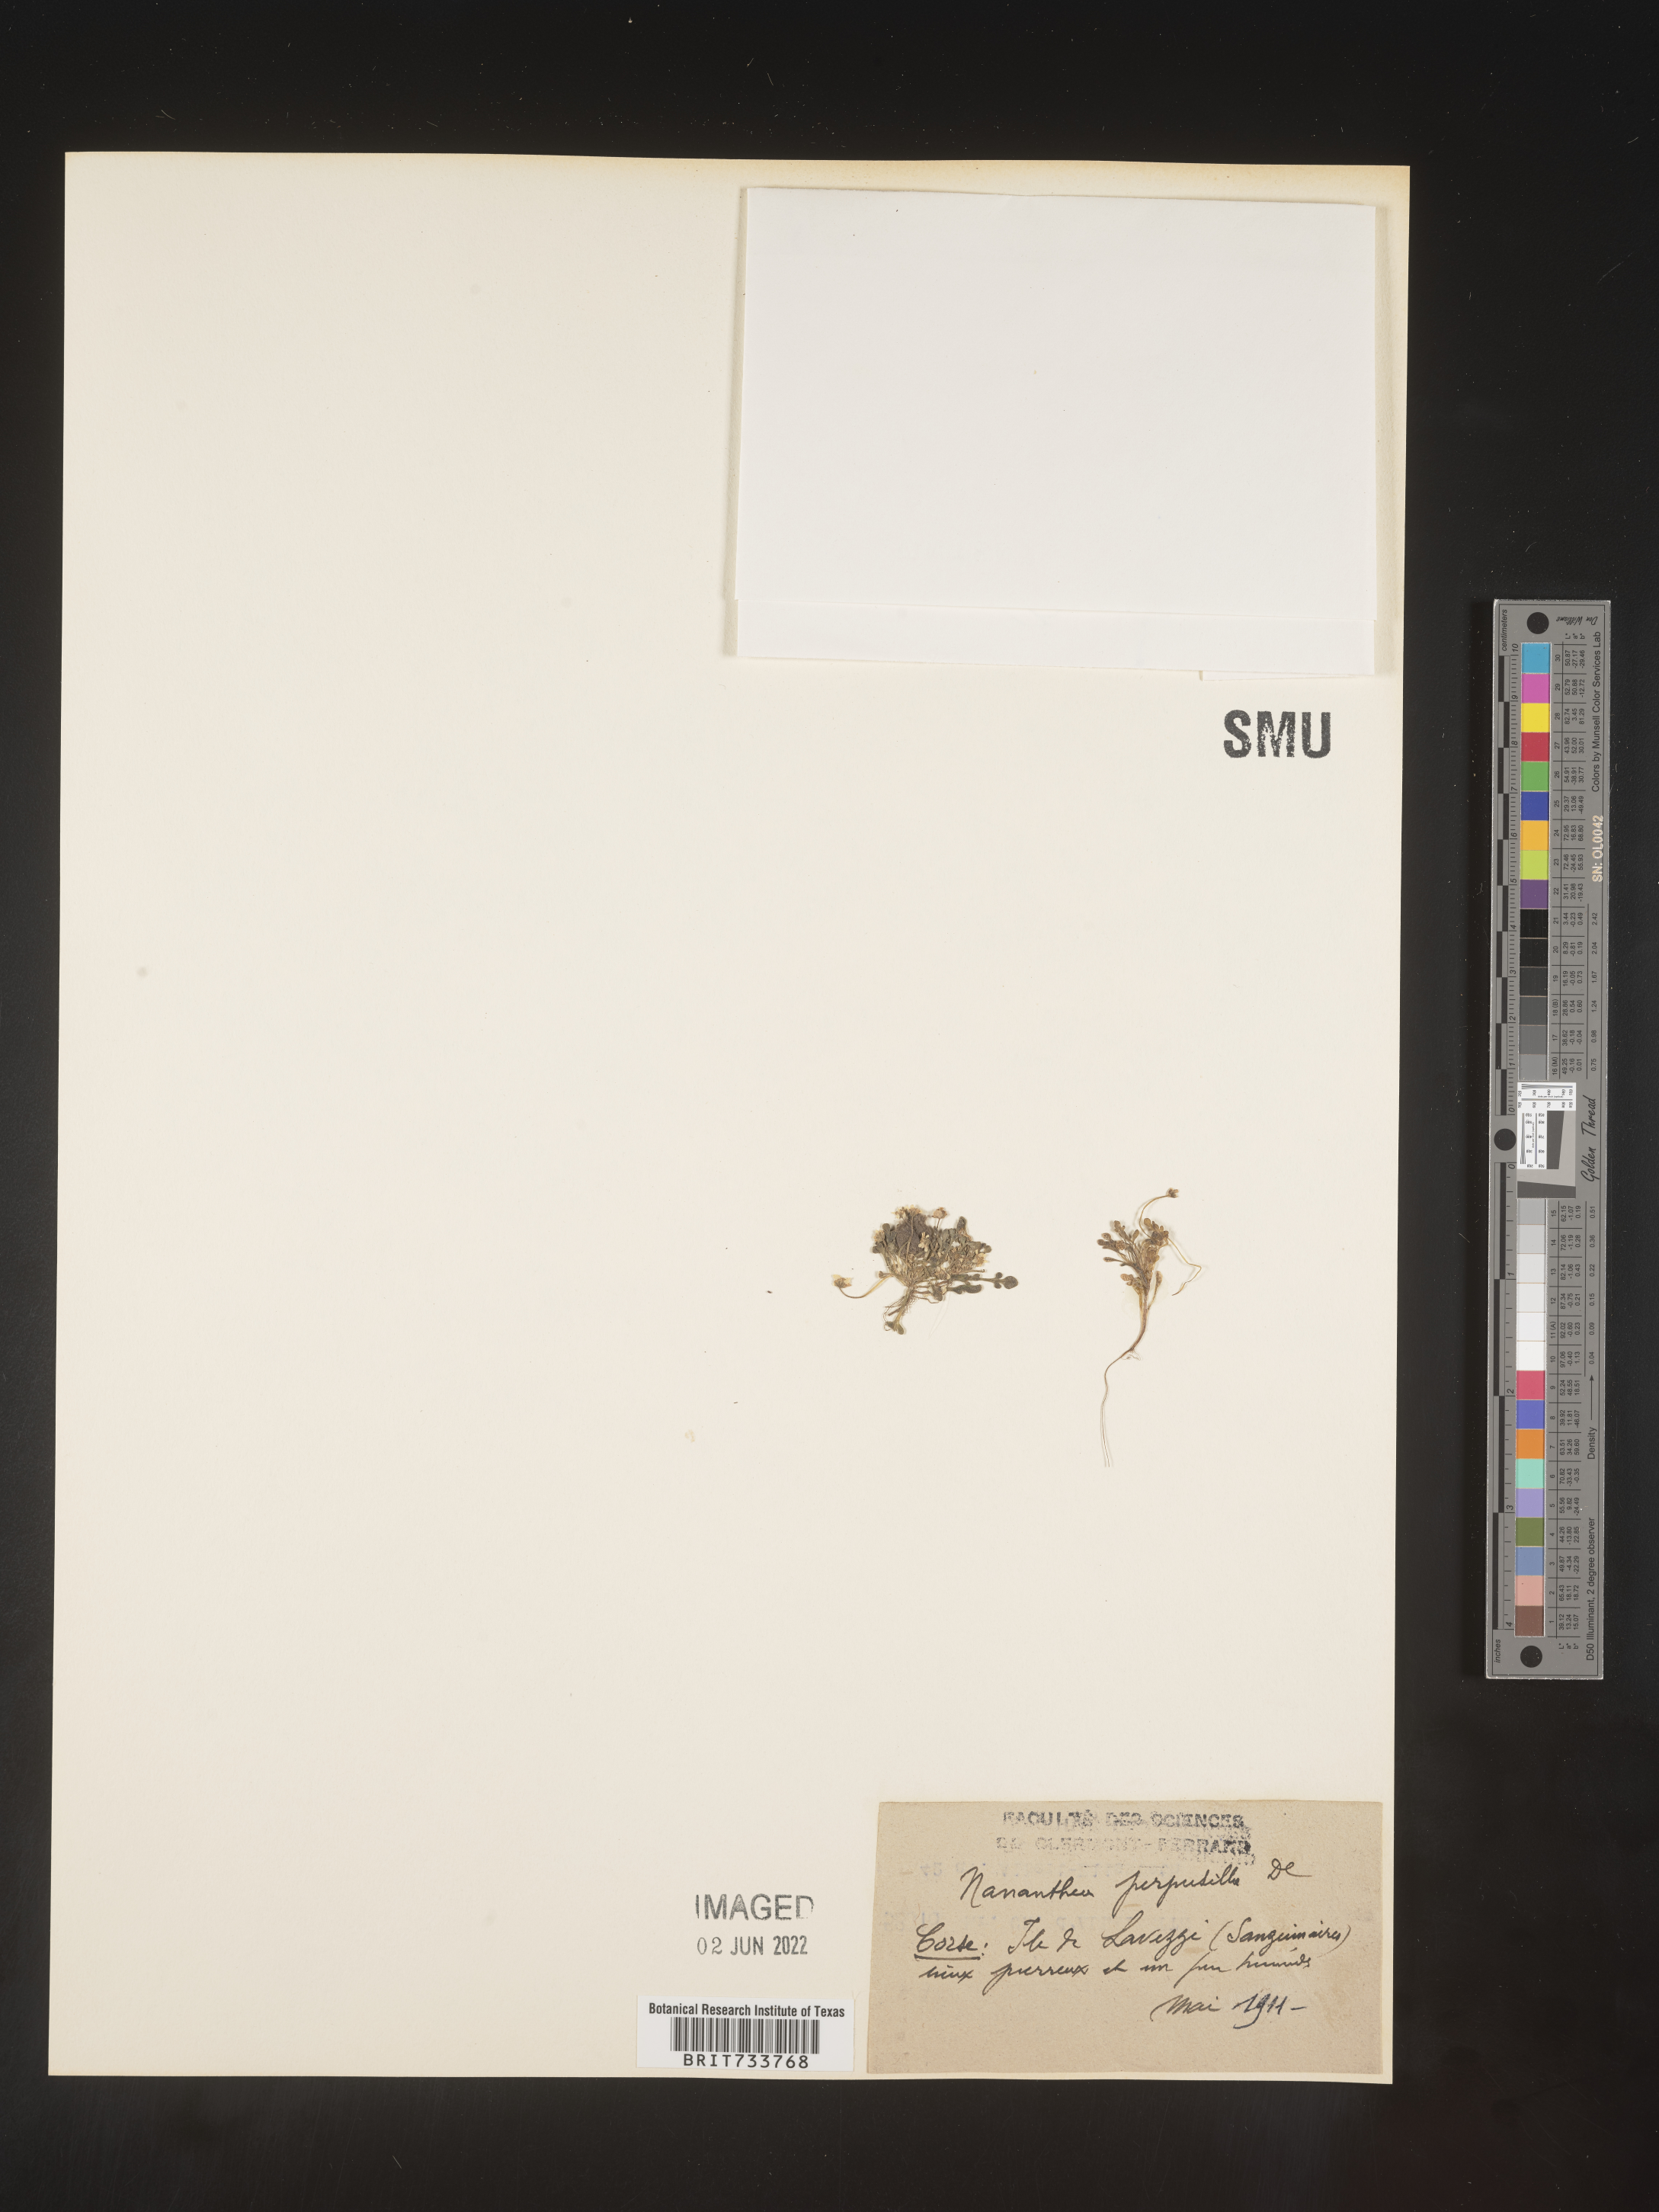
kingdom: Plantae
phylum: Tracheophyta
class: Magnoliopsida
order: Asterales
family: Asteraceae
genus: Nananthea
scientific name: Nananthea
